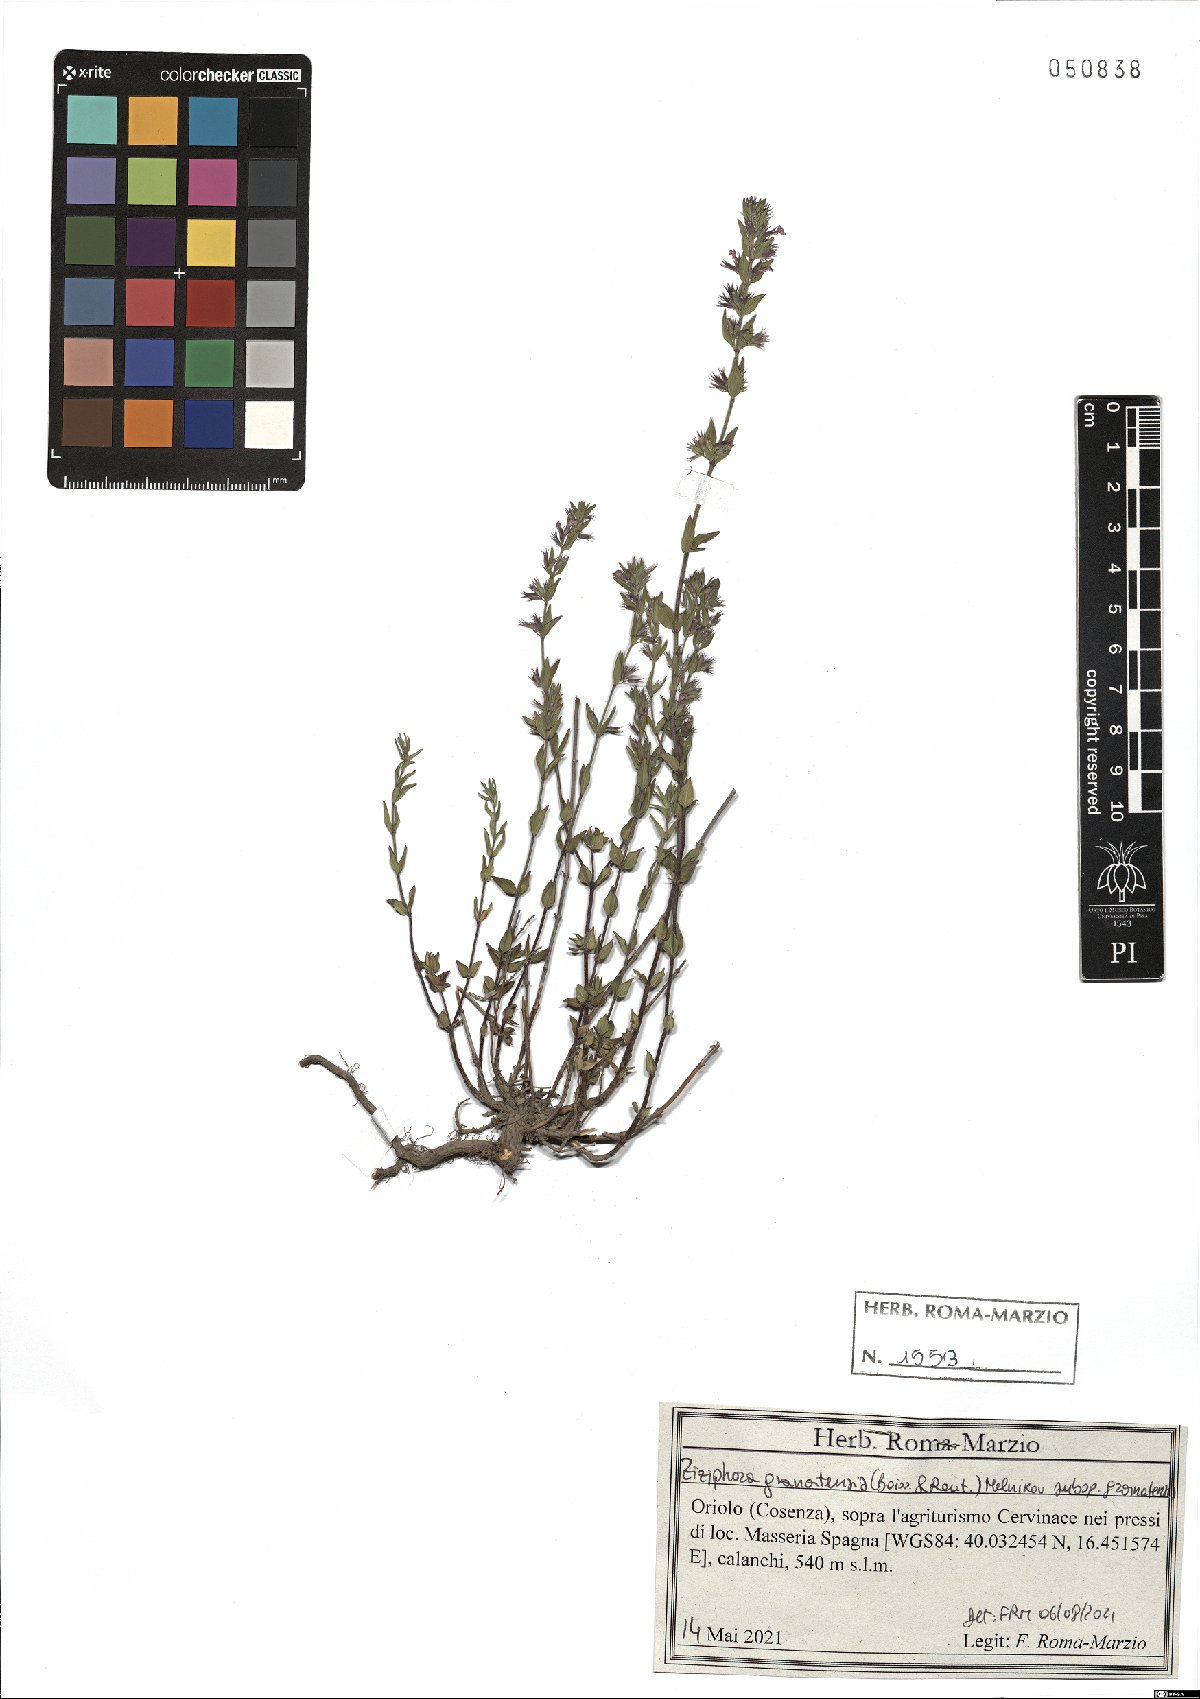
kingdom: Plantae
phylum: Tracheophyta
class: Magnoliopsida
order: Lamiales
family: Lamiaceae
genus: Clinopodium
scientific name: Clinopodium alpinum
